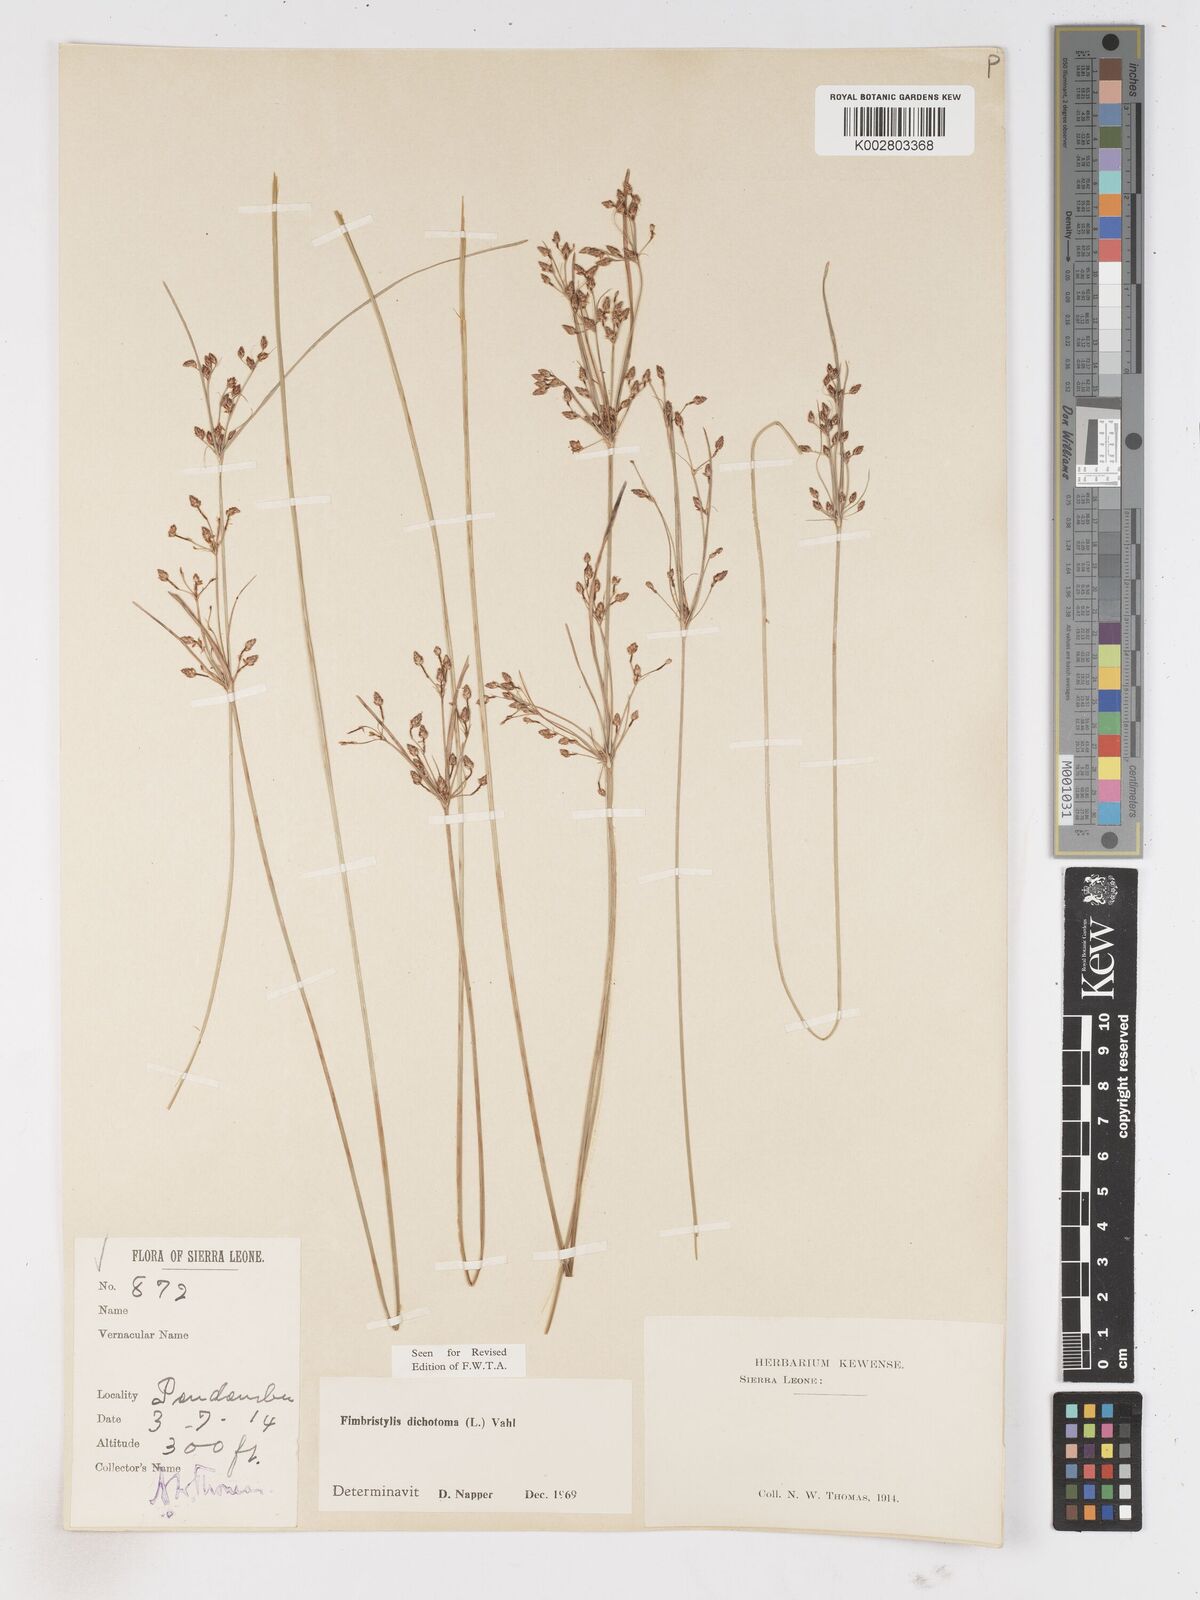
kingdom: Plantae
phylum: Tracheophyta
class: Liliopsida
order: Poales
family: Cyperaceae
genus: Fimbristylis
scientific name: Fimbristylis dichotoma
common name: Forked fimbry
